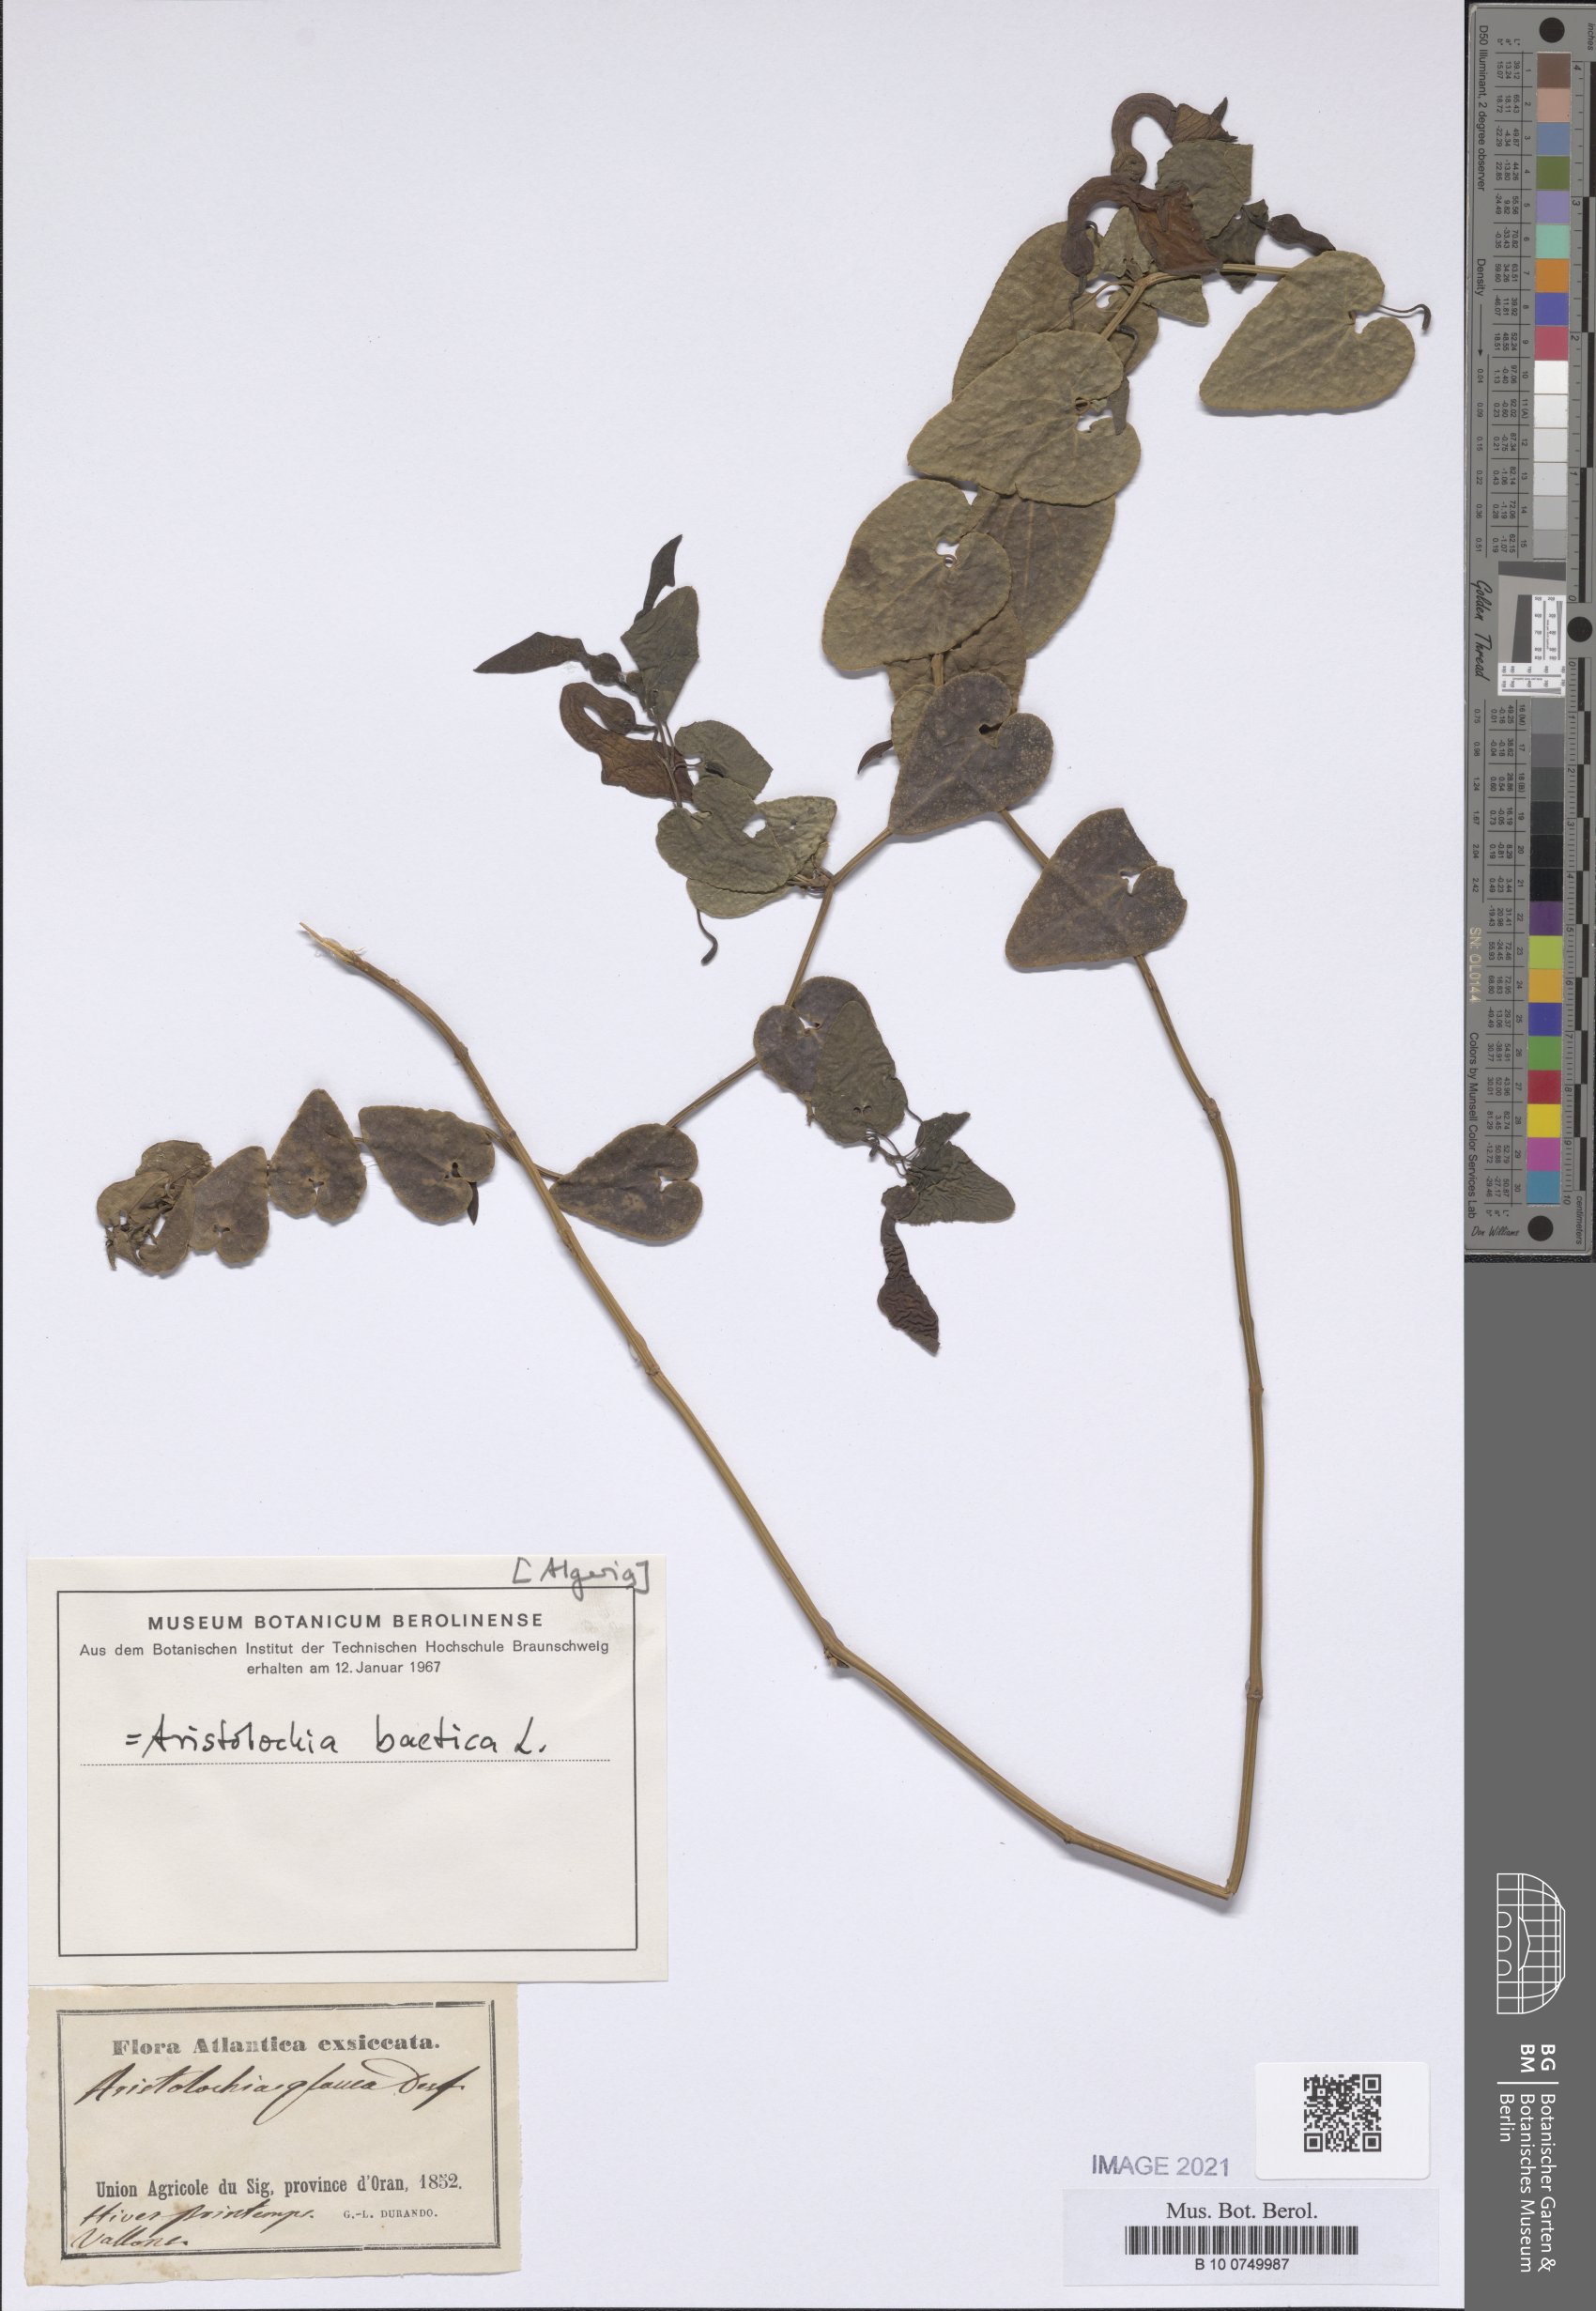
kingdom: Plantae
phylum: Tracheophyta
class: Magnoliopsida
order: Piperales
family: Aristolochiaceae
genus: Aristolochia
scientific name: Aristolochia baetica
